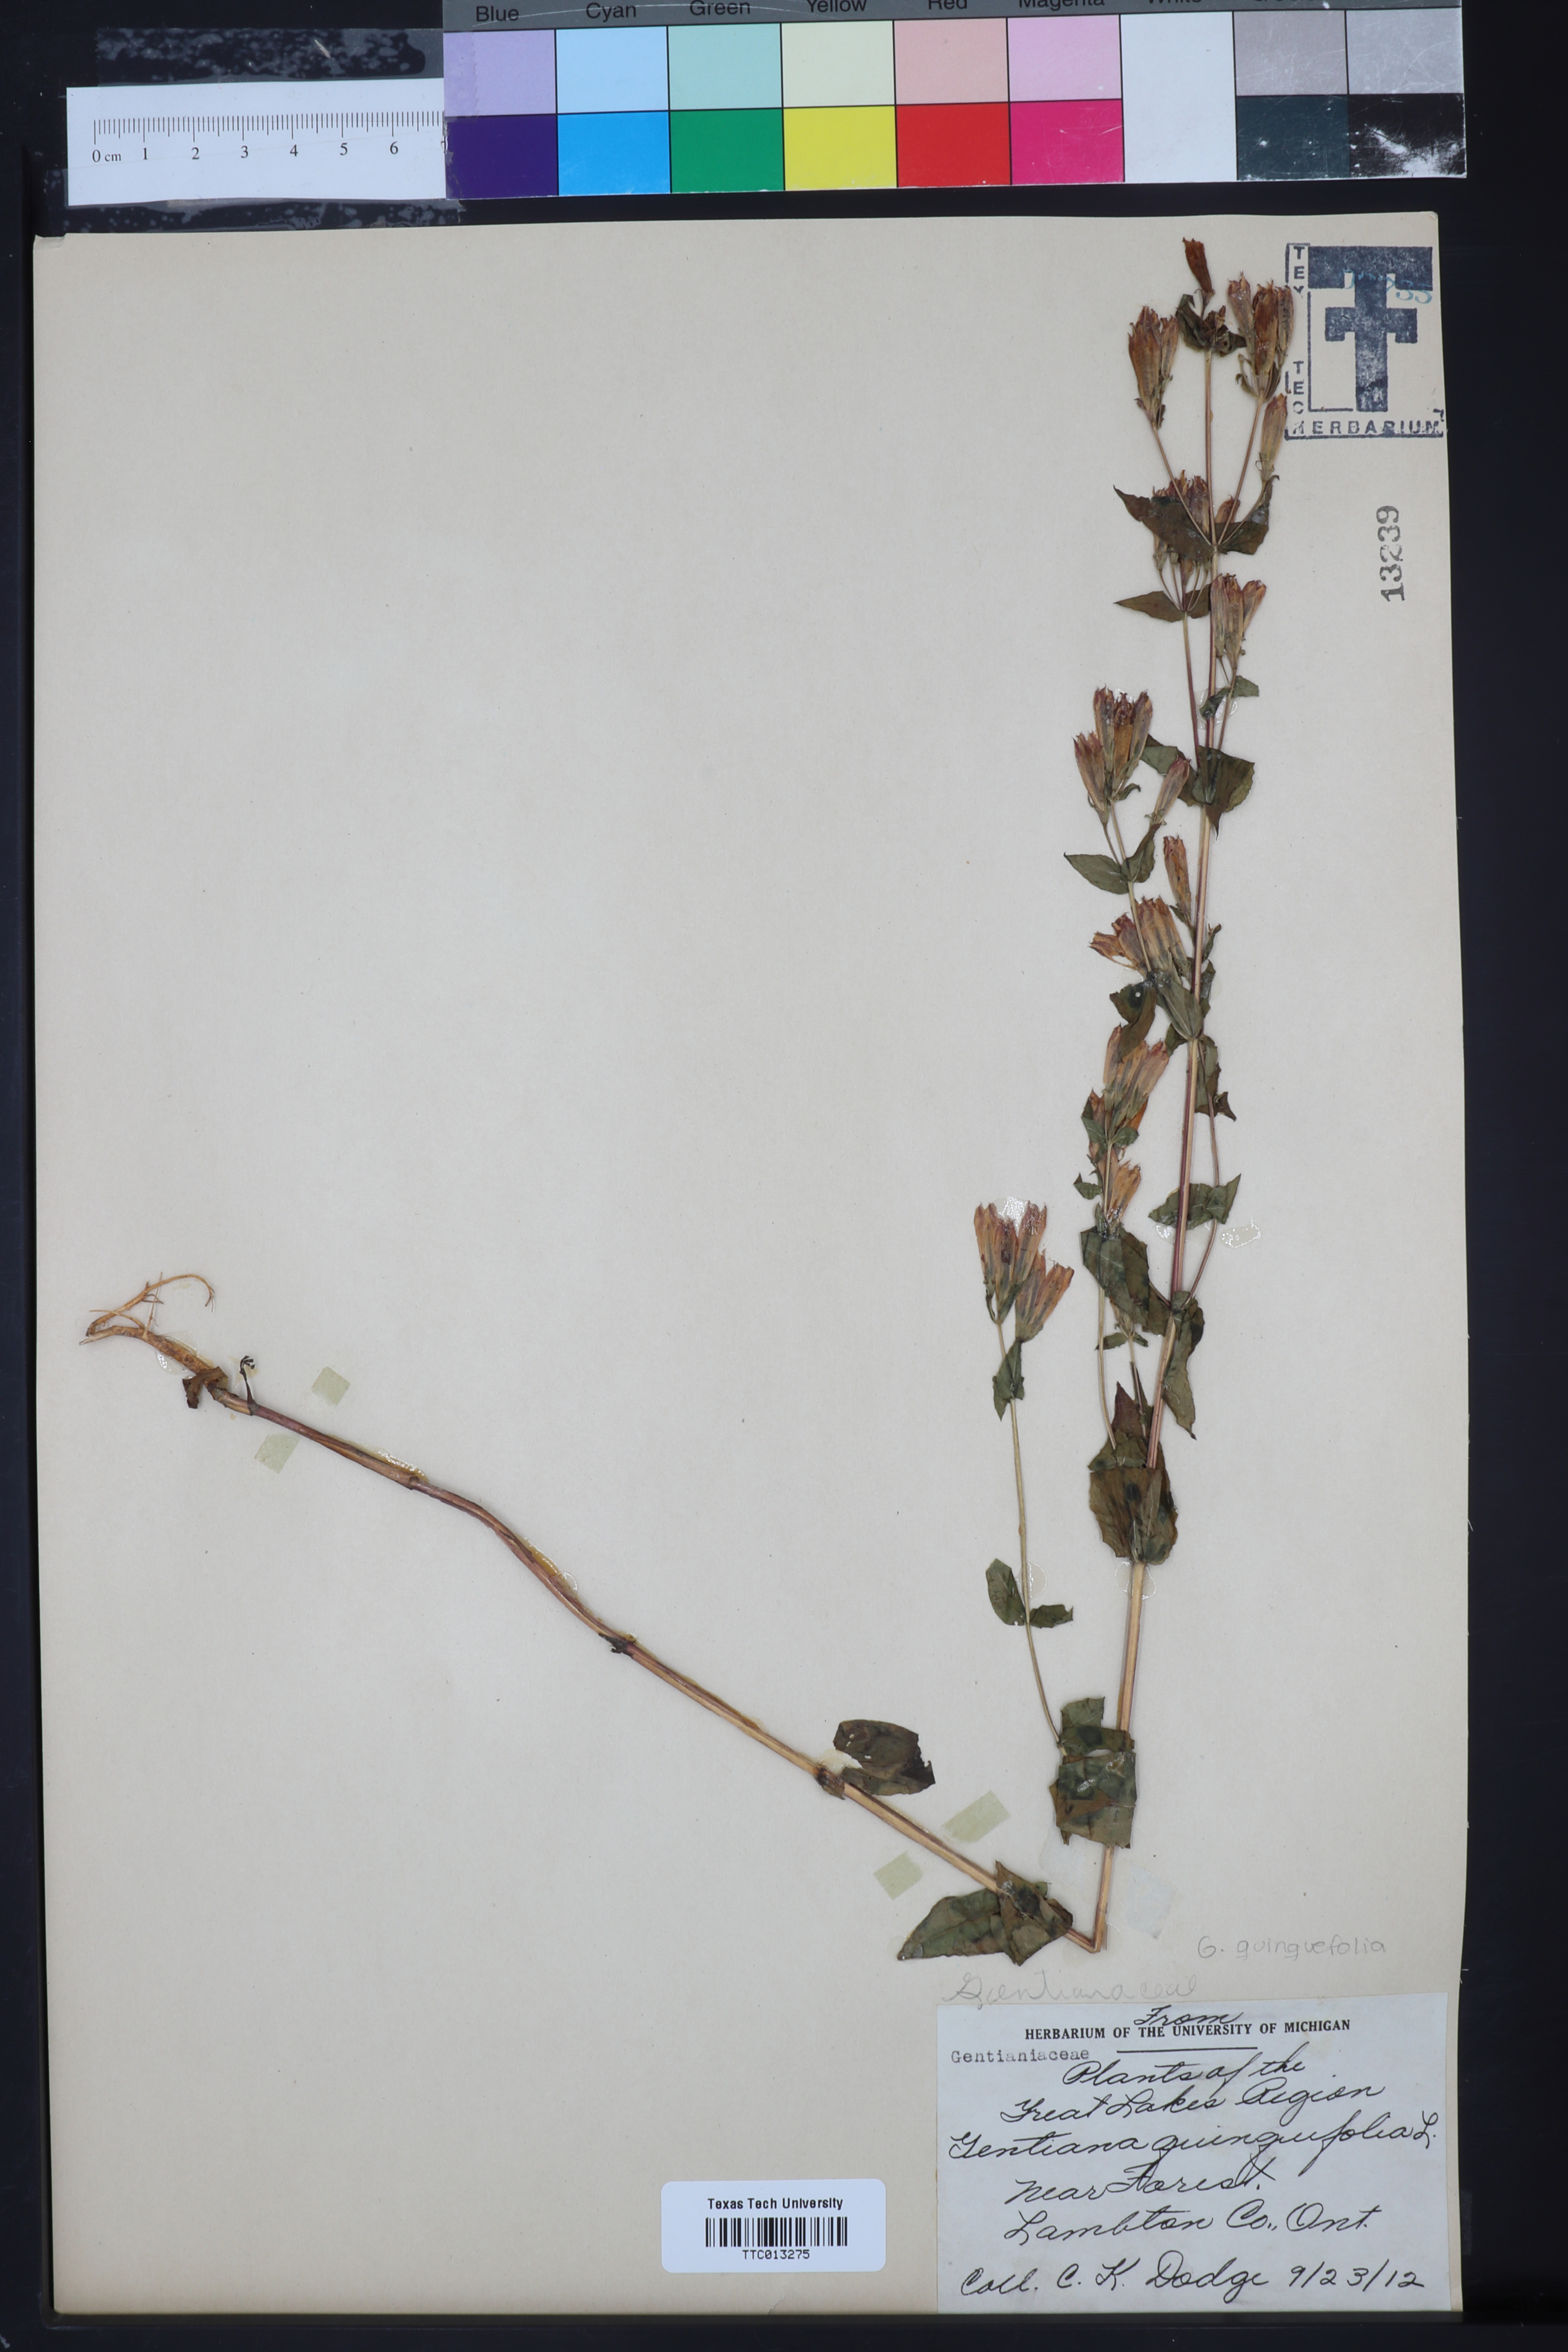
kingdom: Plantae
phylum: Tracheophyta
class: Magnoliopsida
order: Gentianales
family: Gentianaceae
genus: Gentiana
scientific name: Gentiana pubigera
